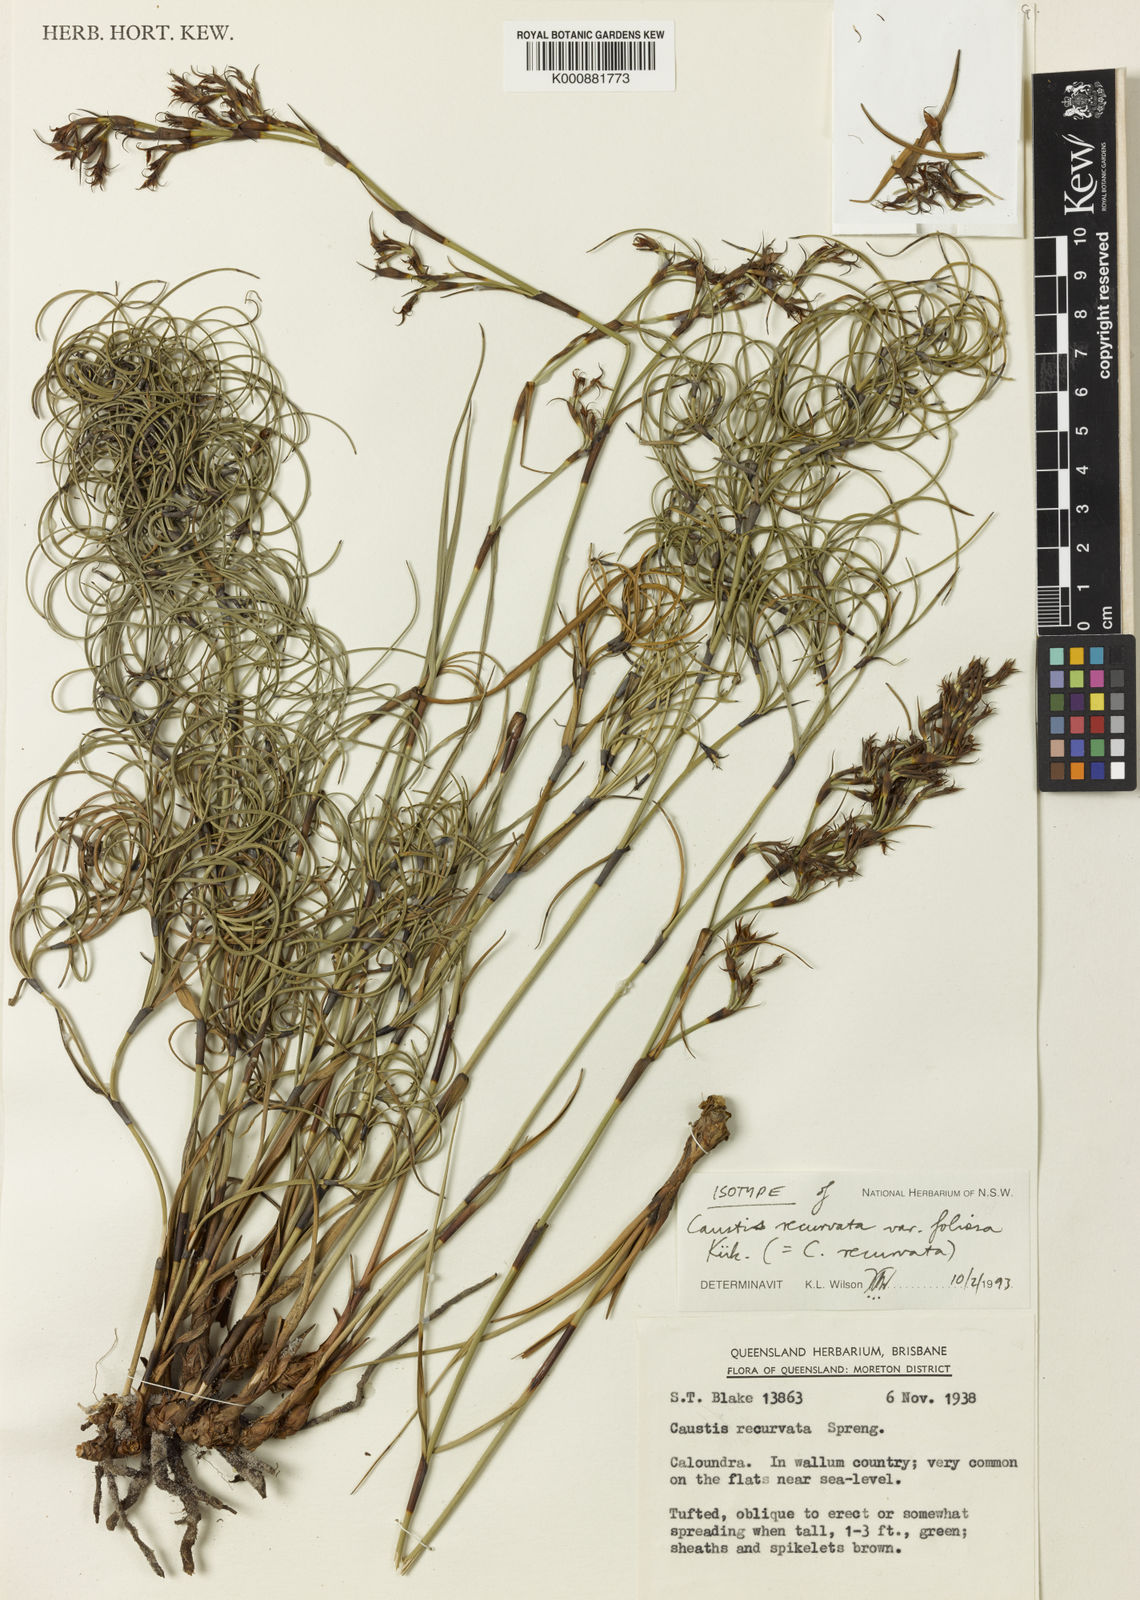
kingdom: Plantae
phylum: Tracheophyta
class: Liliopsida
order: Poales
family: Cyperaceae
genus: Caustis
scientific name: Caustis recurvata
